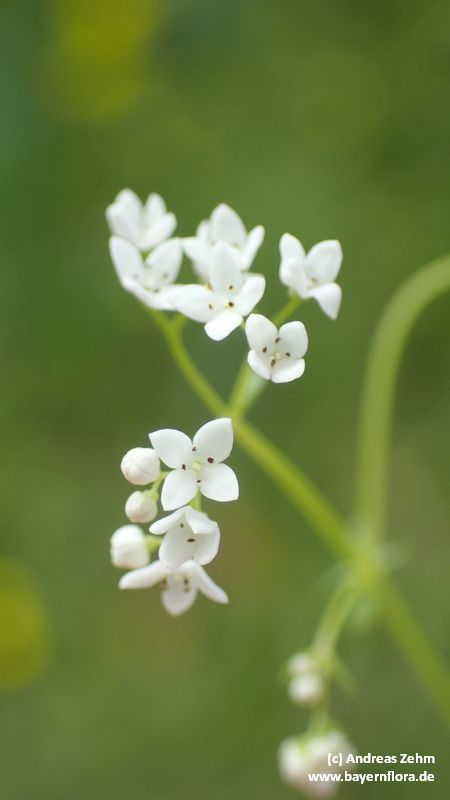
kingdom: Plantae
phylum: Tracheophyta
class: Magnoliopsida
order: Gentianales
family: Rubiaceae
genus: Galium
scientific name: Galium
